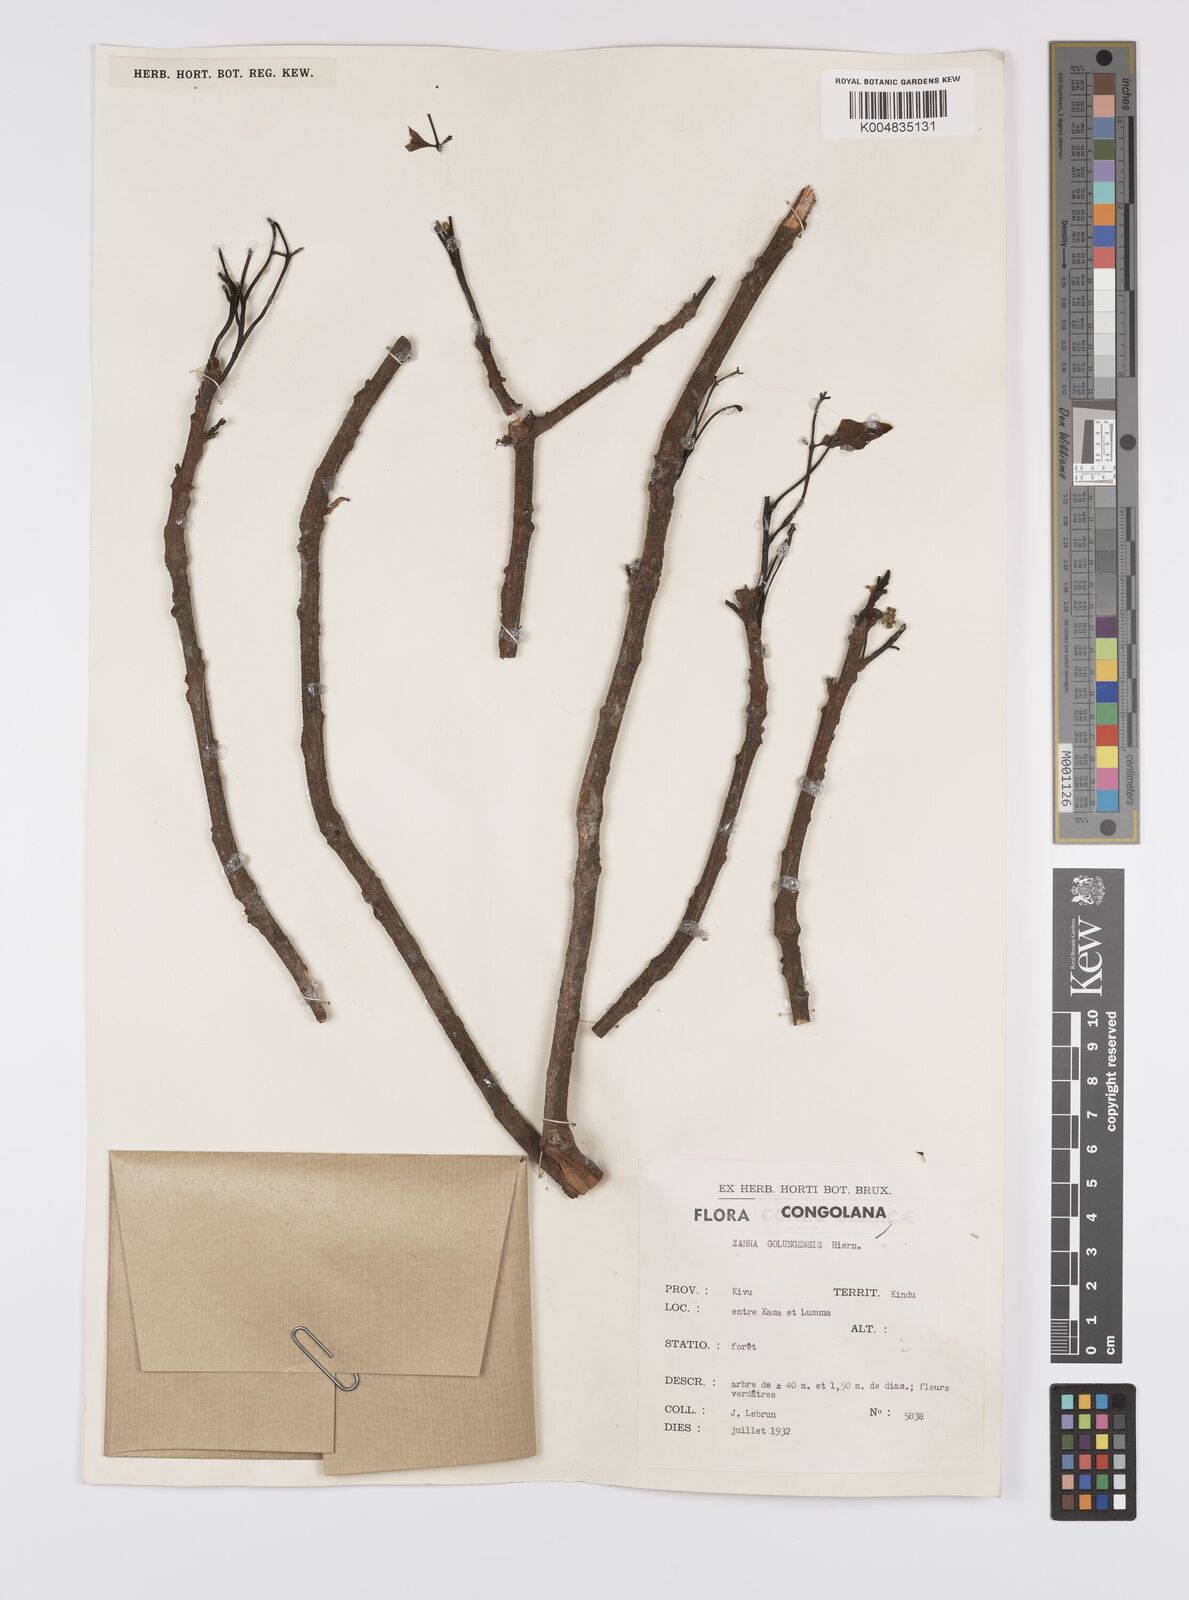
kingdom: Plantae
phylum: Tracheophyta
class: Magnoliopsida
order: Sapindales
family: Sapindaceae
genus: Zanha
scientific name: Zanha golungensis
